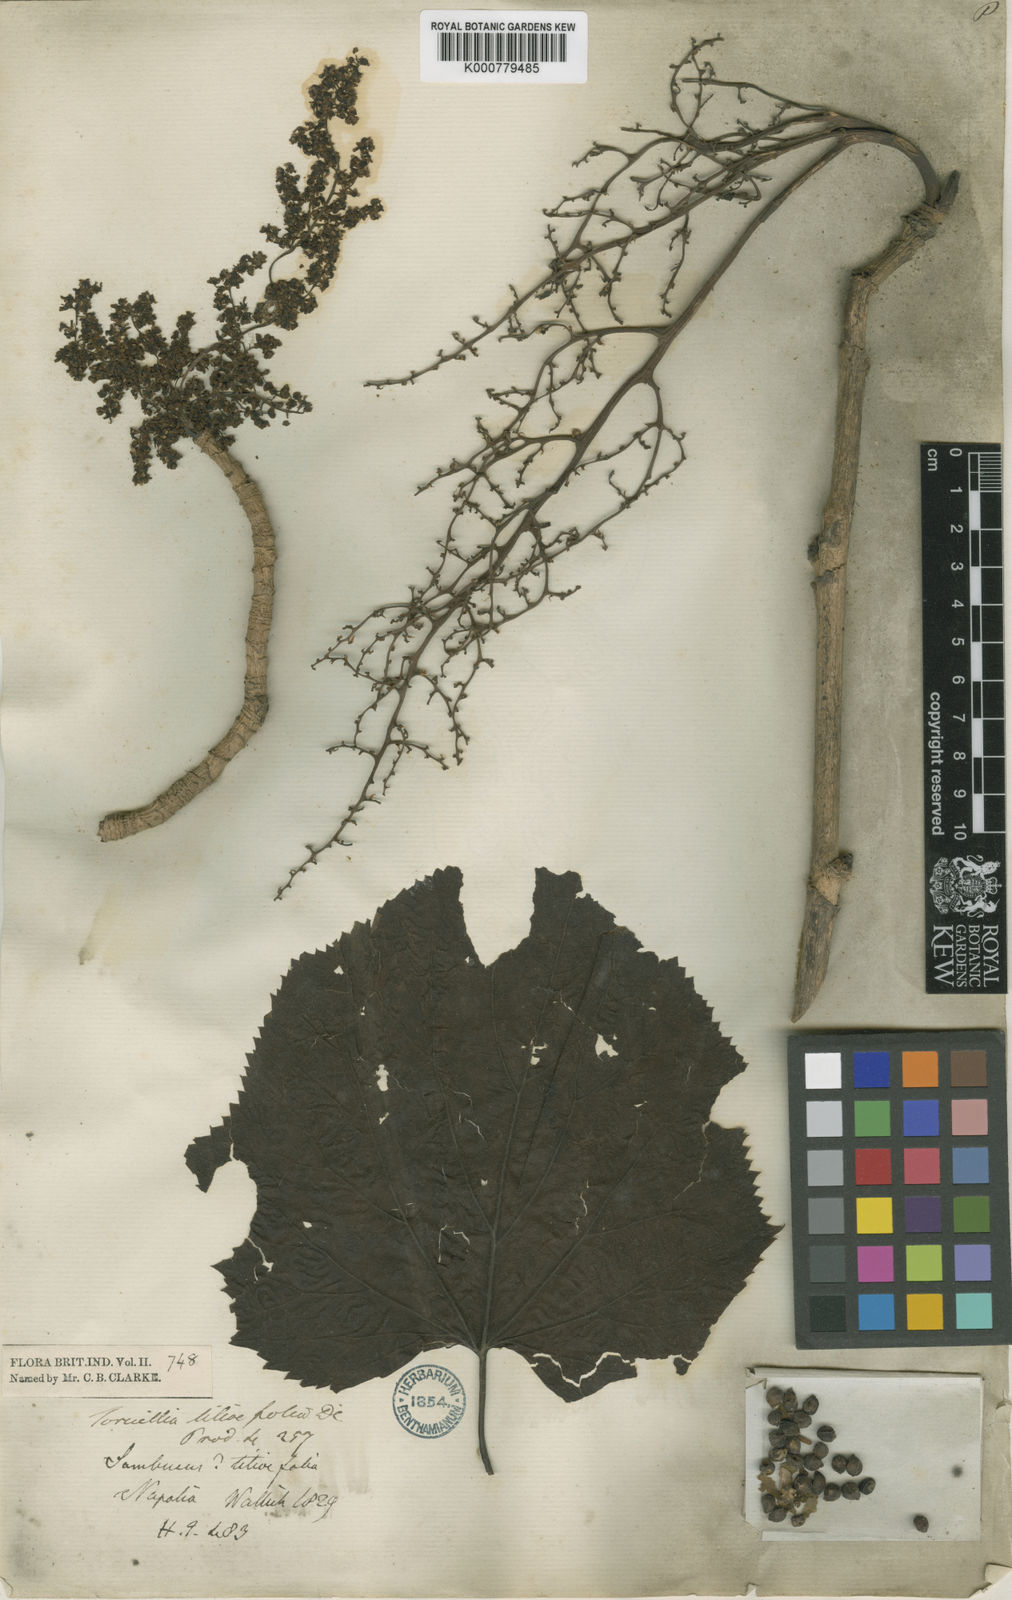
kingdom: Plantae
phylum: Tracheophyta
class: Magnoliopsida
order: Apiales
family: Torricelliaceae
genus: Torricellia
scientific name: Torricellia tiliifolia
